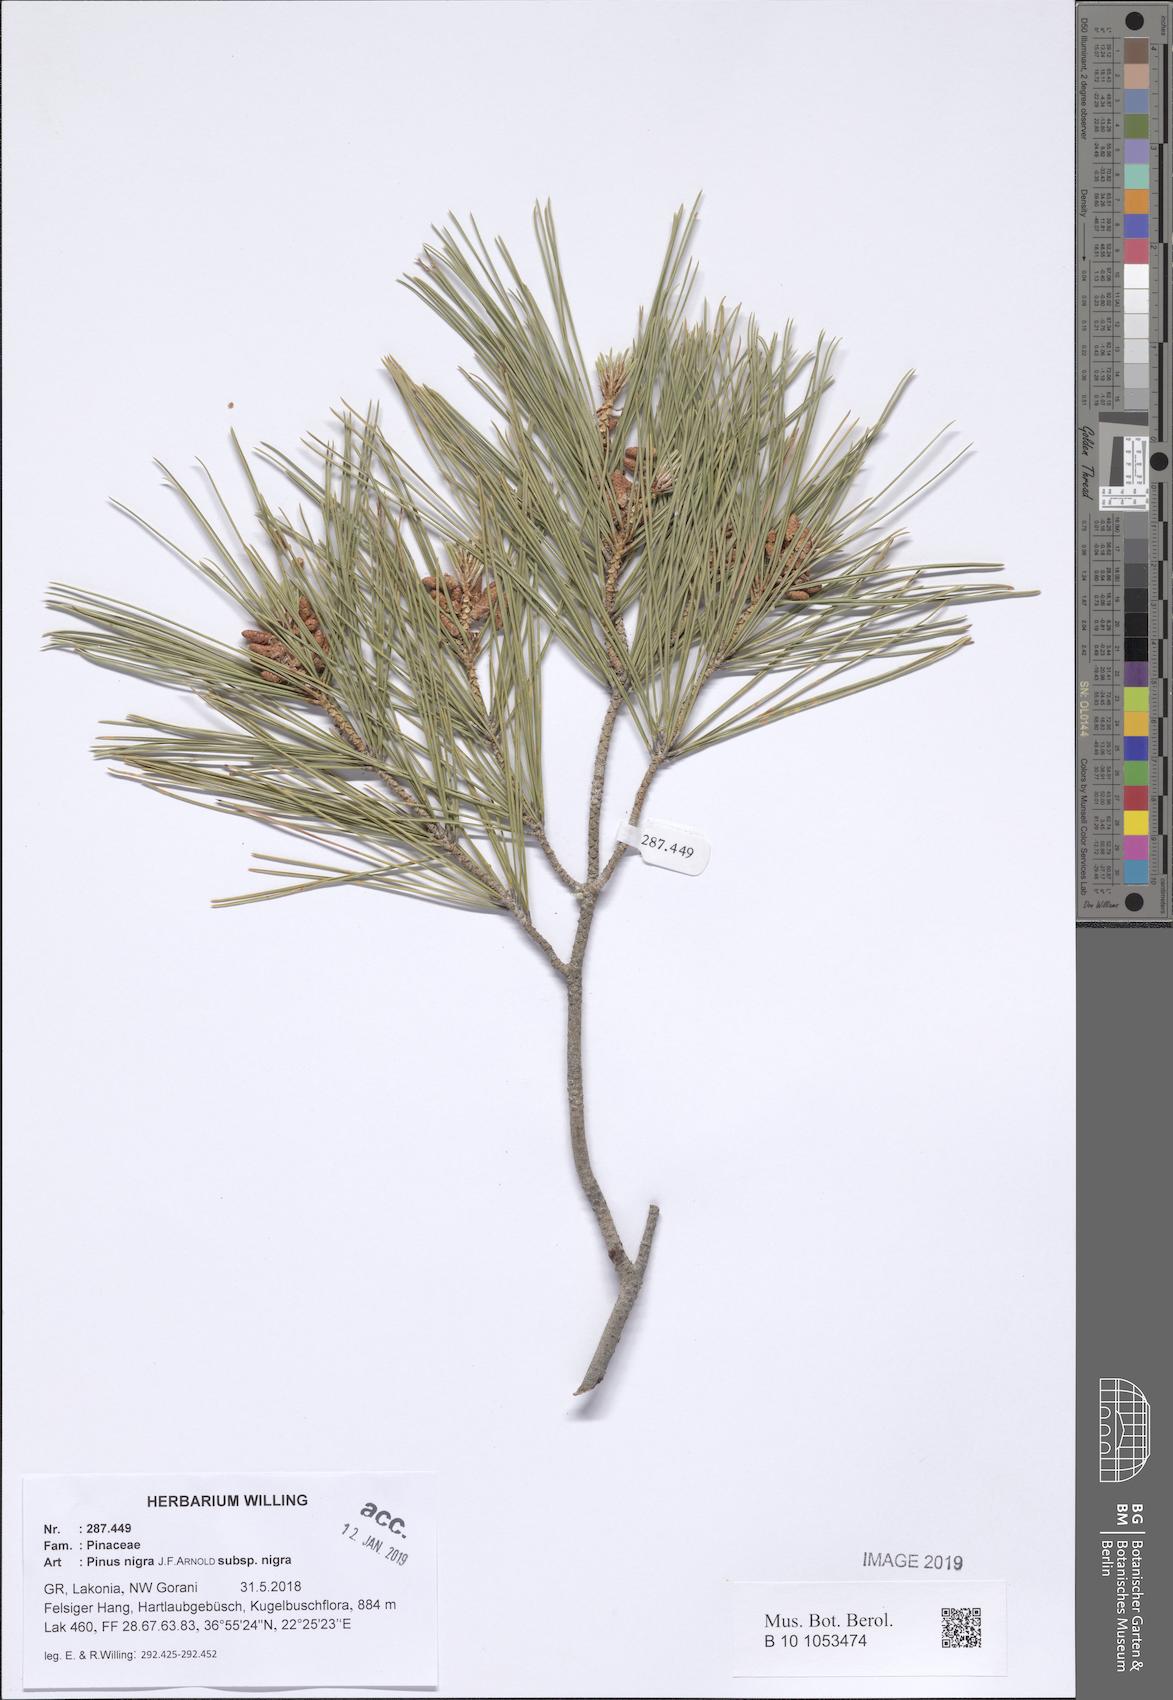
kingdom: Plantae
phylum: Tracheophyta
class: Pinopsida
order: Pinales
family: Pinaceae
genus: Pinus
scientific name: Pinus nigra
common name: Austrian pine
